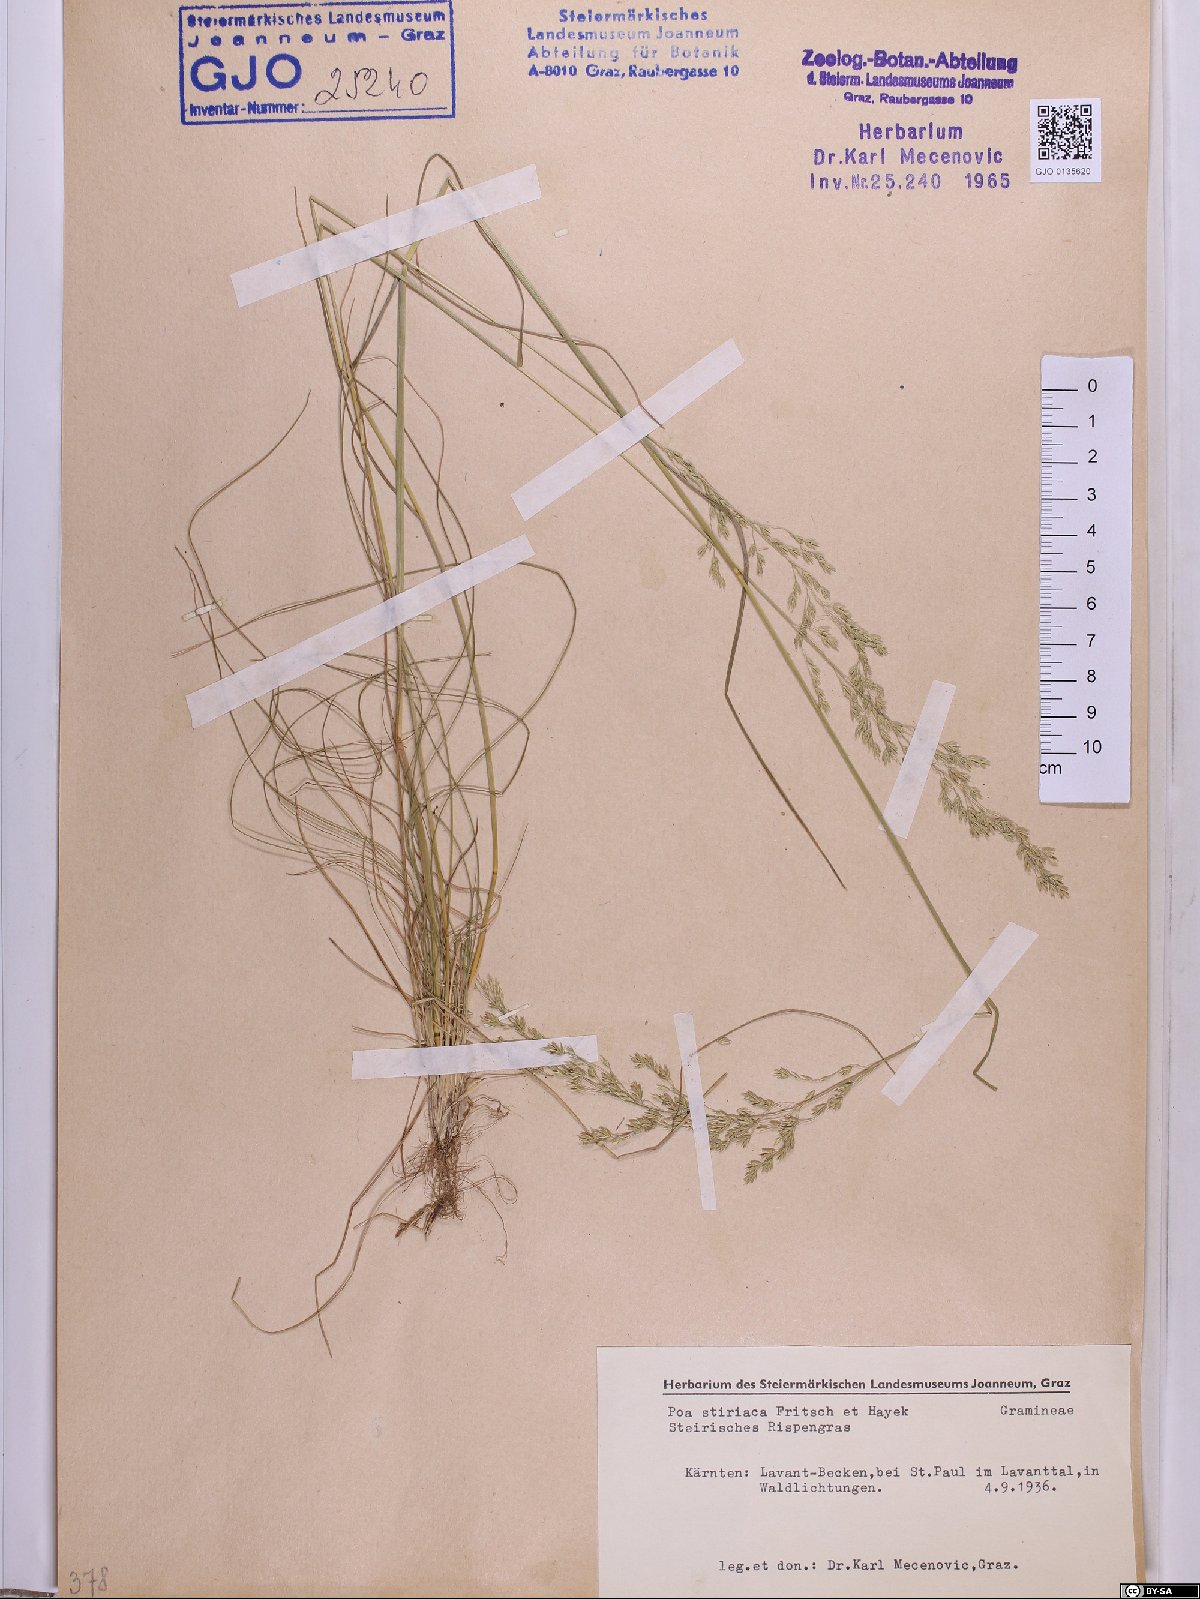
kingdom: Plantae
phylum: Tracheophyta
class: Liliopsida
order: Poales
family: Poaceae
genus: Poa
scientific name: Poa stiriaca
